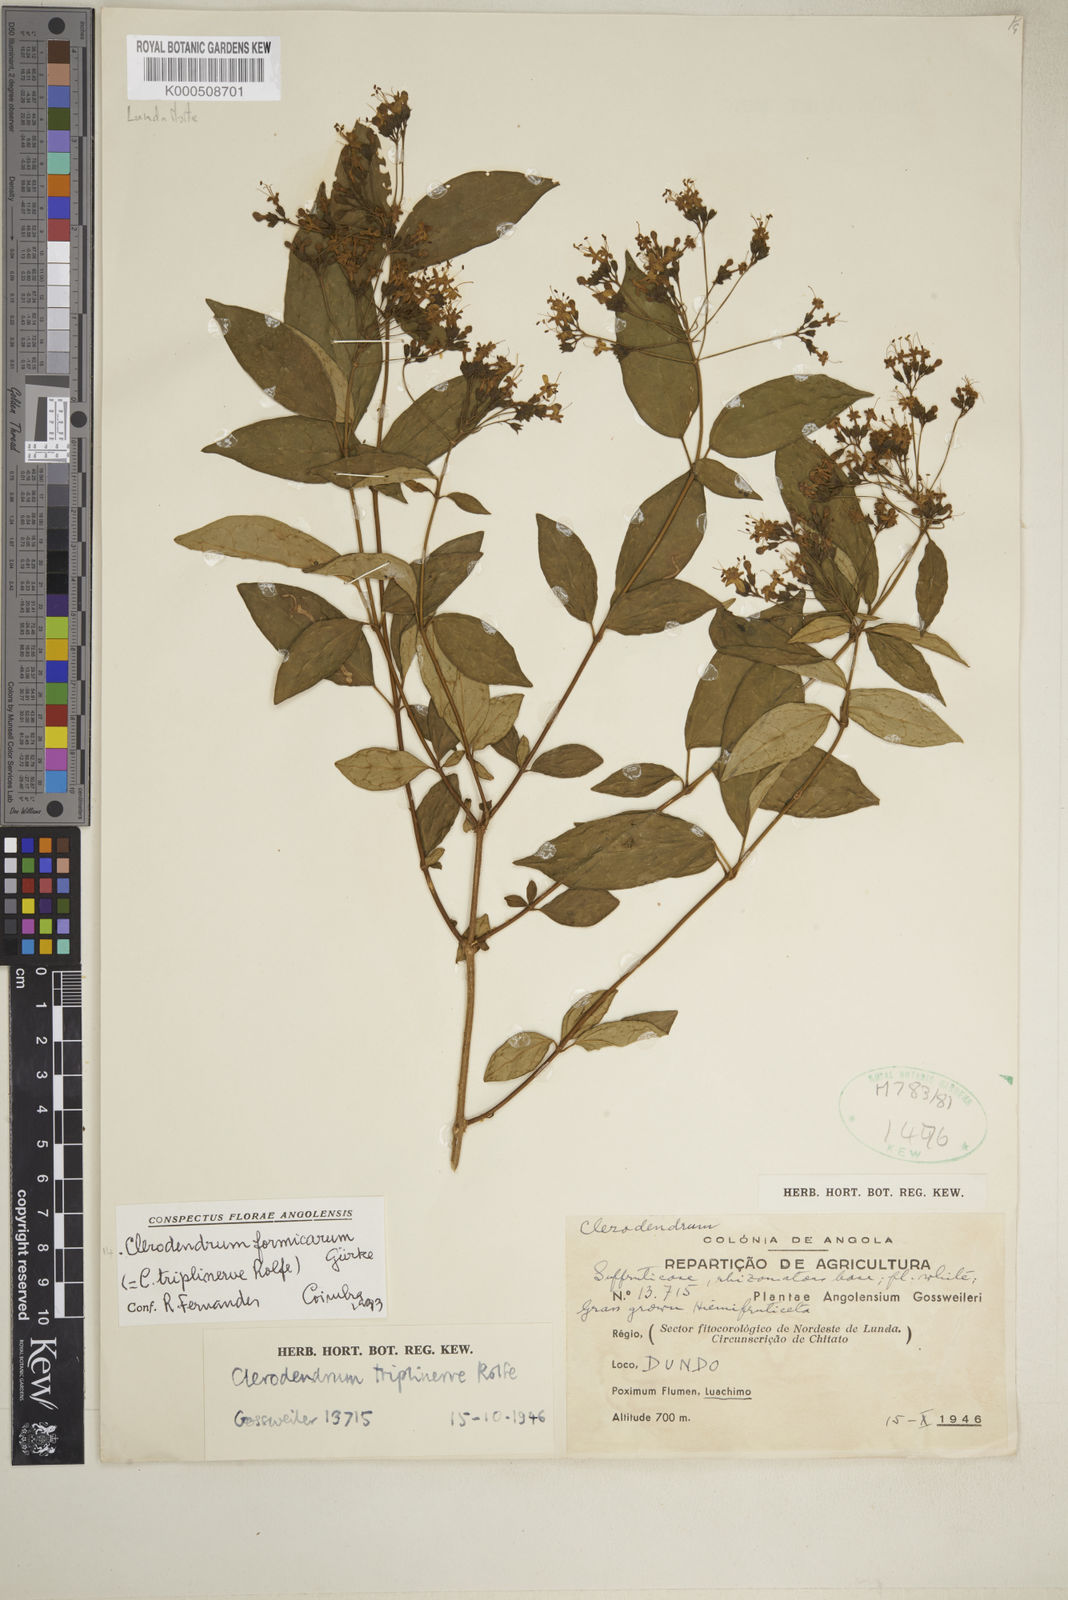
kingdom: Plantae
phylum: Tracheophyta
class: Magnoliopsida
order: Lamiales
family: Lamiaceae
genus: Clerodendrum
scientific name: Clerodendrum
